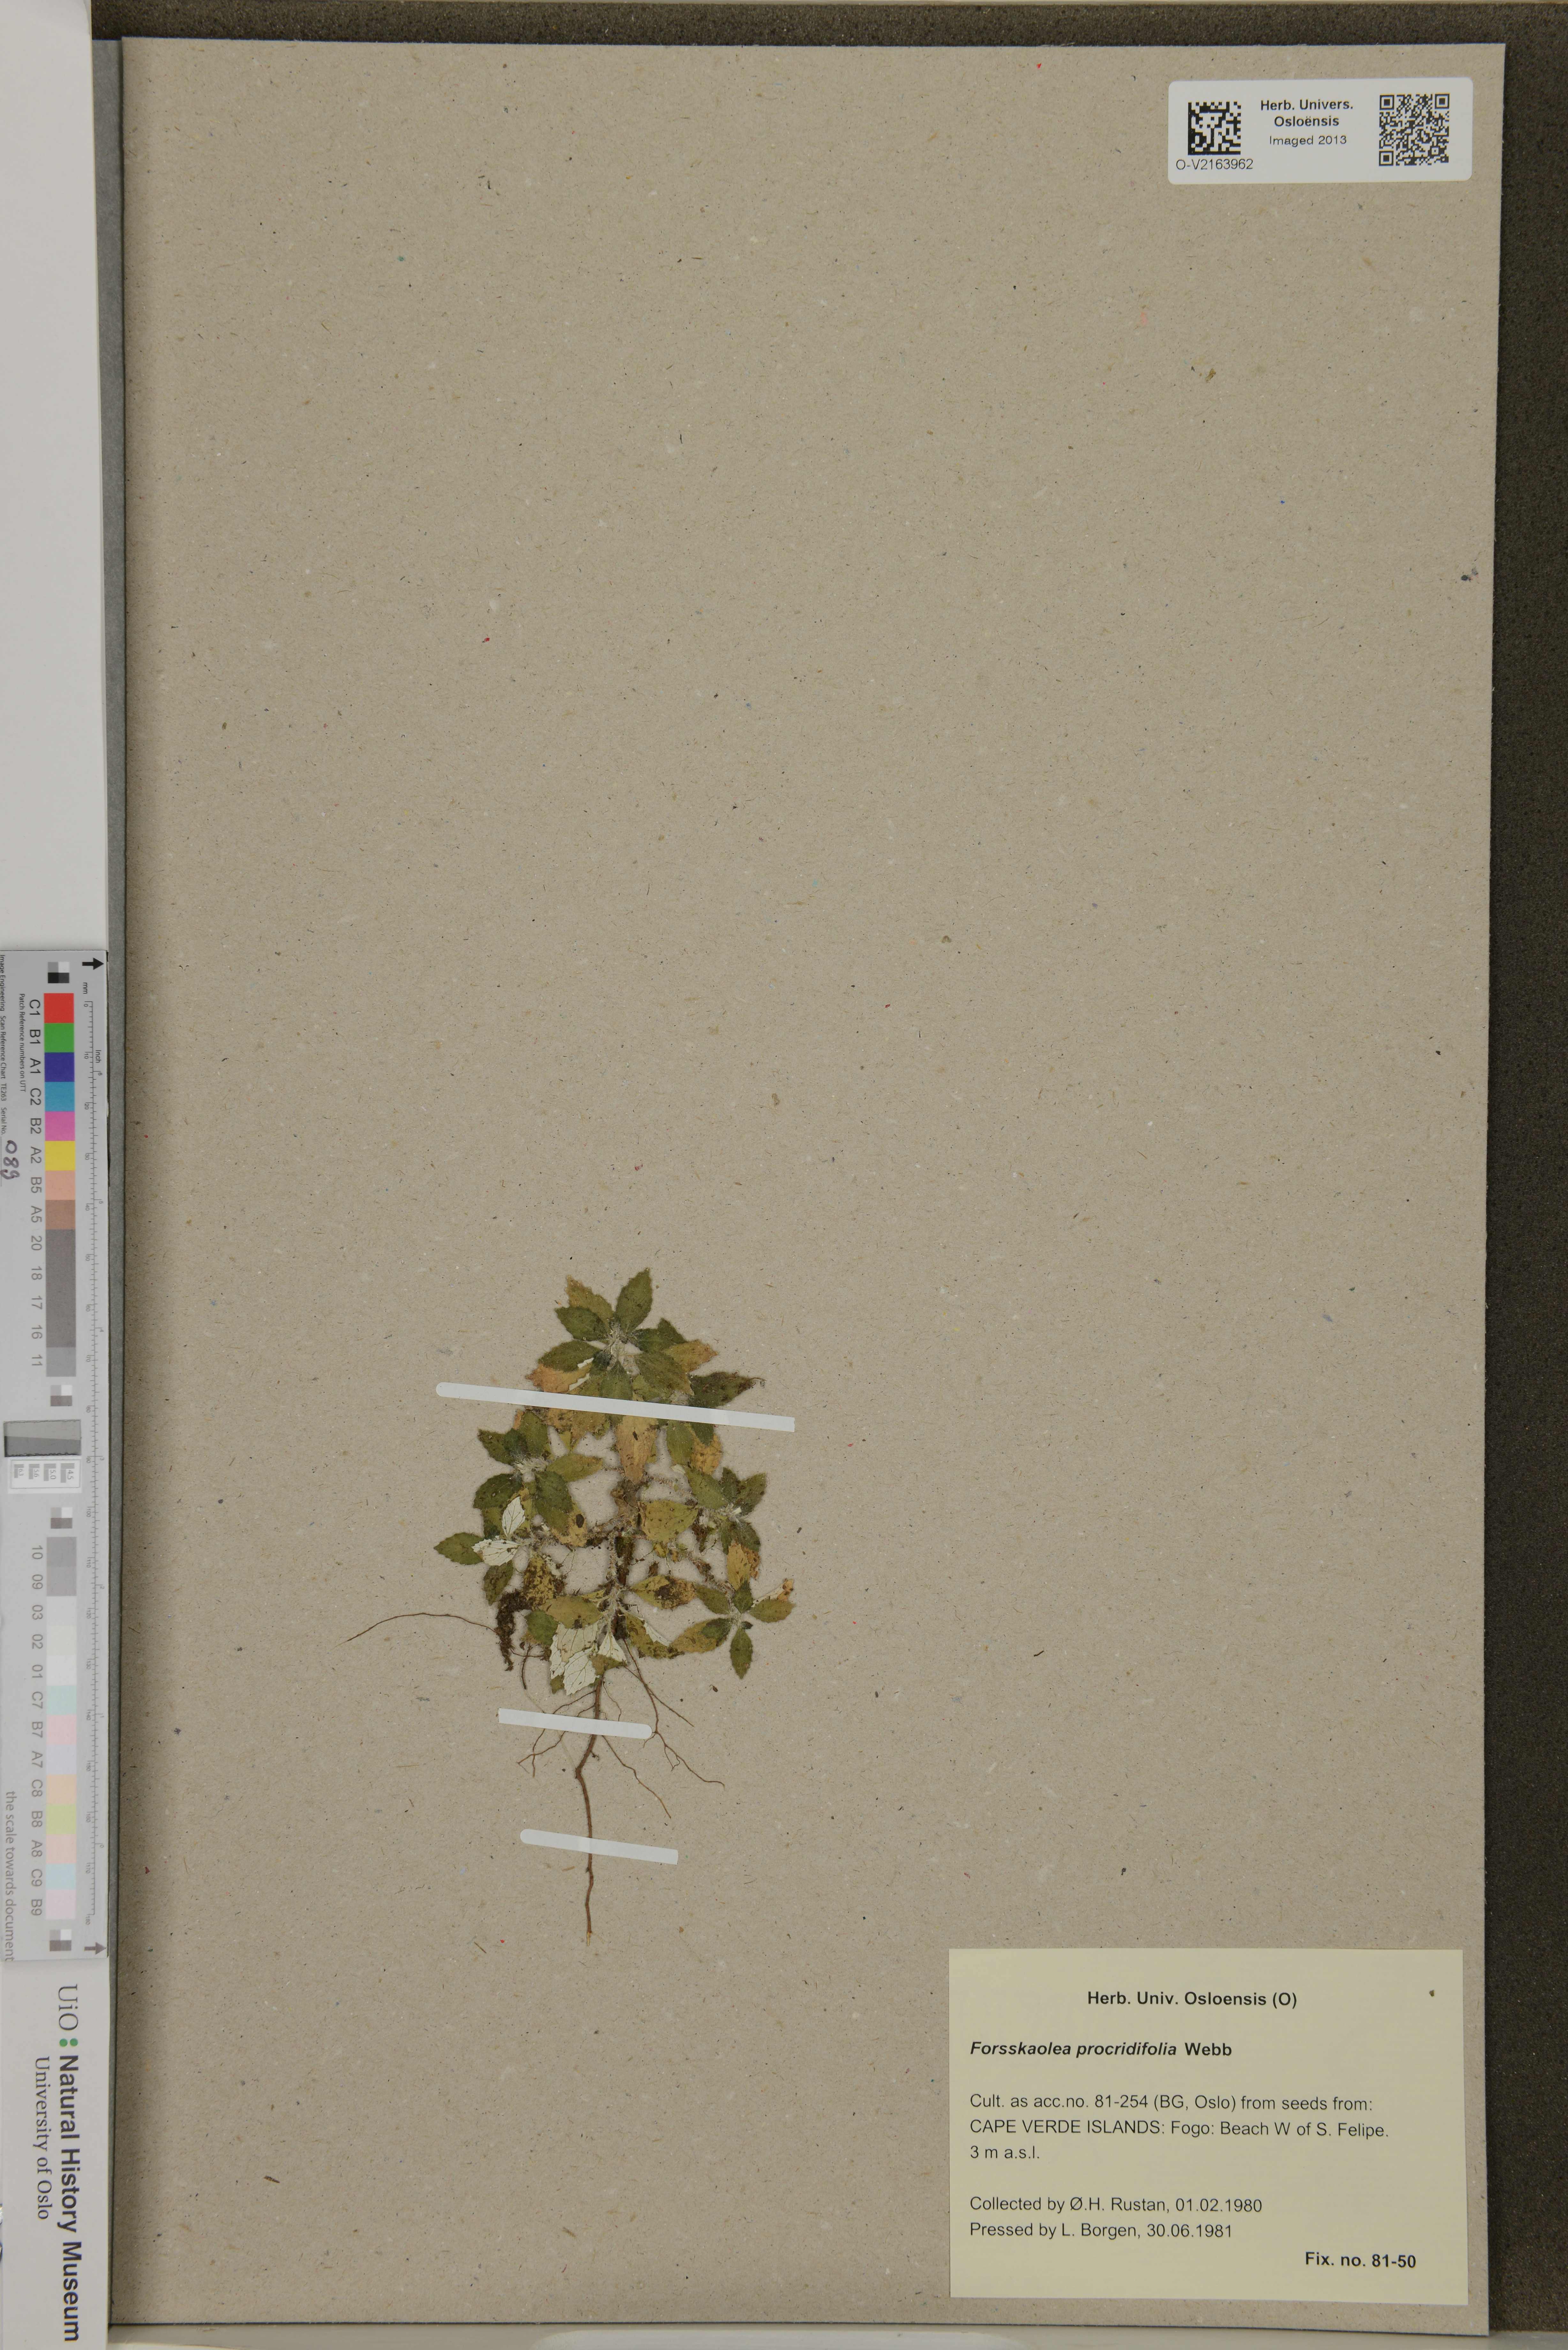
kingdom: Plantae
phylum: Tracheophyta
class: Magnoliopsida
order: Rosales
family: Urticaceae
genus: Forsskaolea
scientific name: Forsskaolea procridifolia
